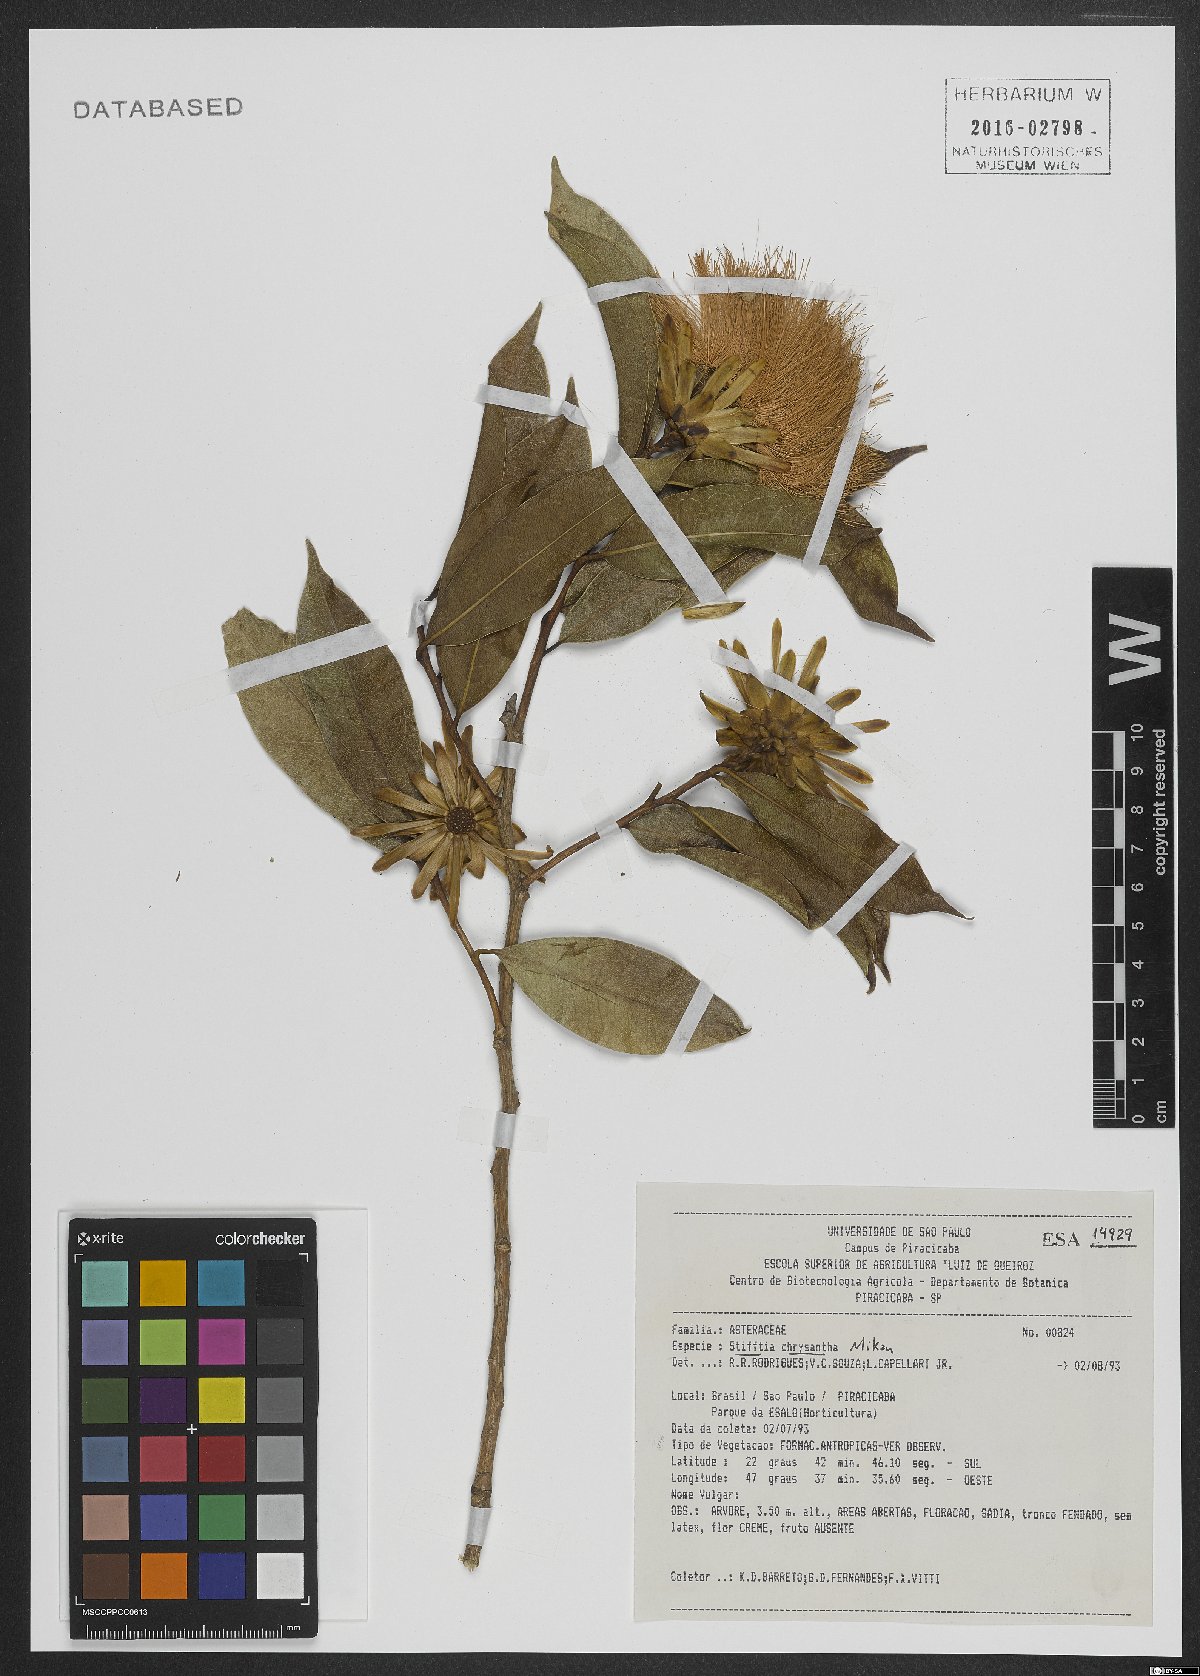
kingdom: Plantae
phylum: Tracheophyta
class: Magnoliopsida
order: Asterales
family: Asteraceae
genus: Stifftia
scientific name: Stifftia chrysantha
